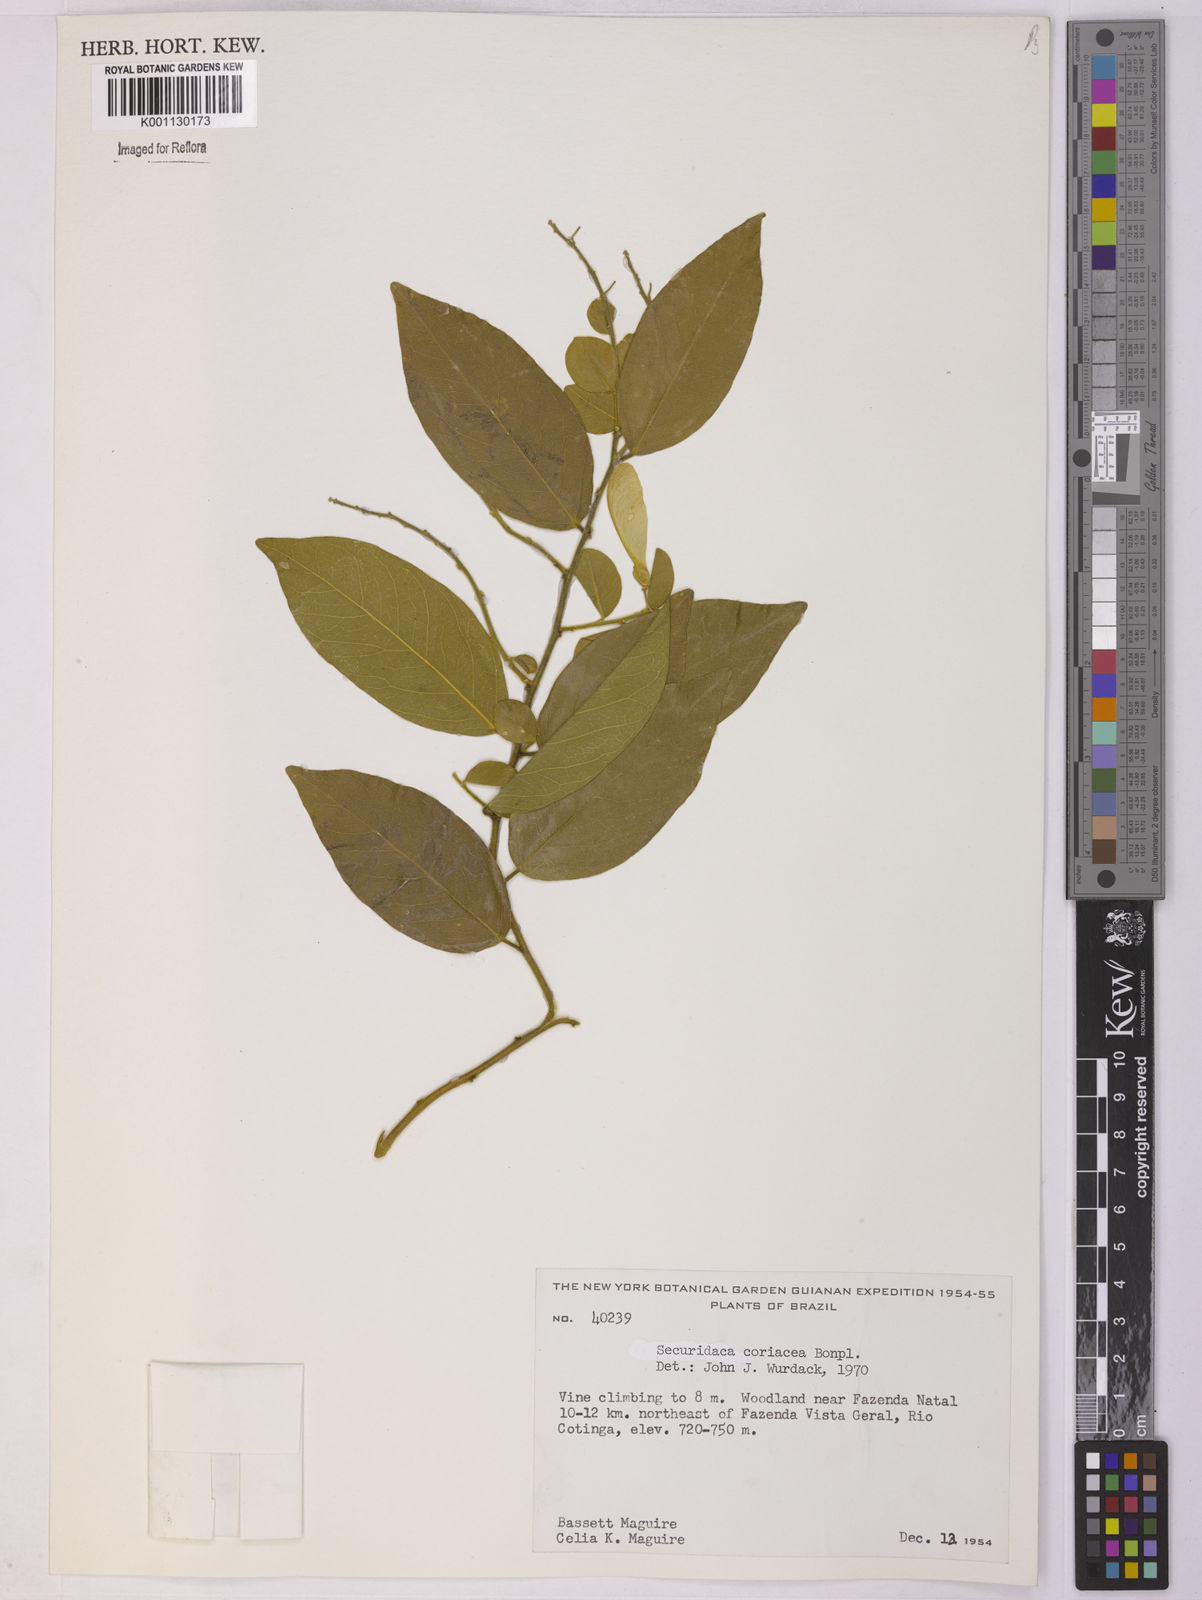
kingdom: Plantae
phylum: Tracheophyta
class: Magnoliopsida
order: Fabales
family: Polygalaceae
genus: Securidaca
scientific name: Securidaca coriacea
